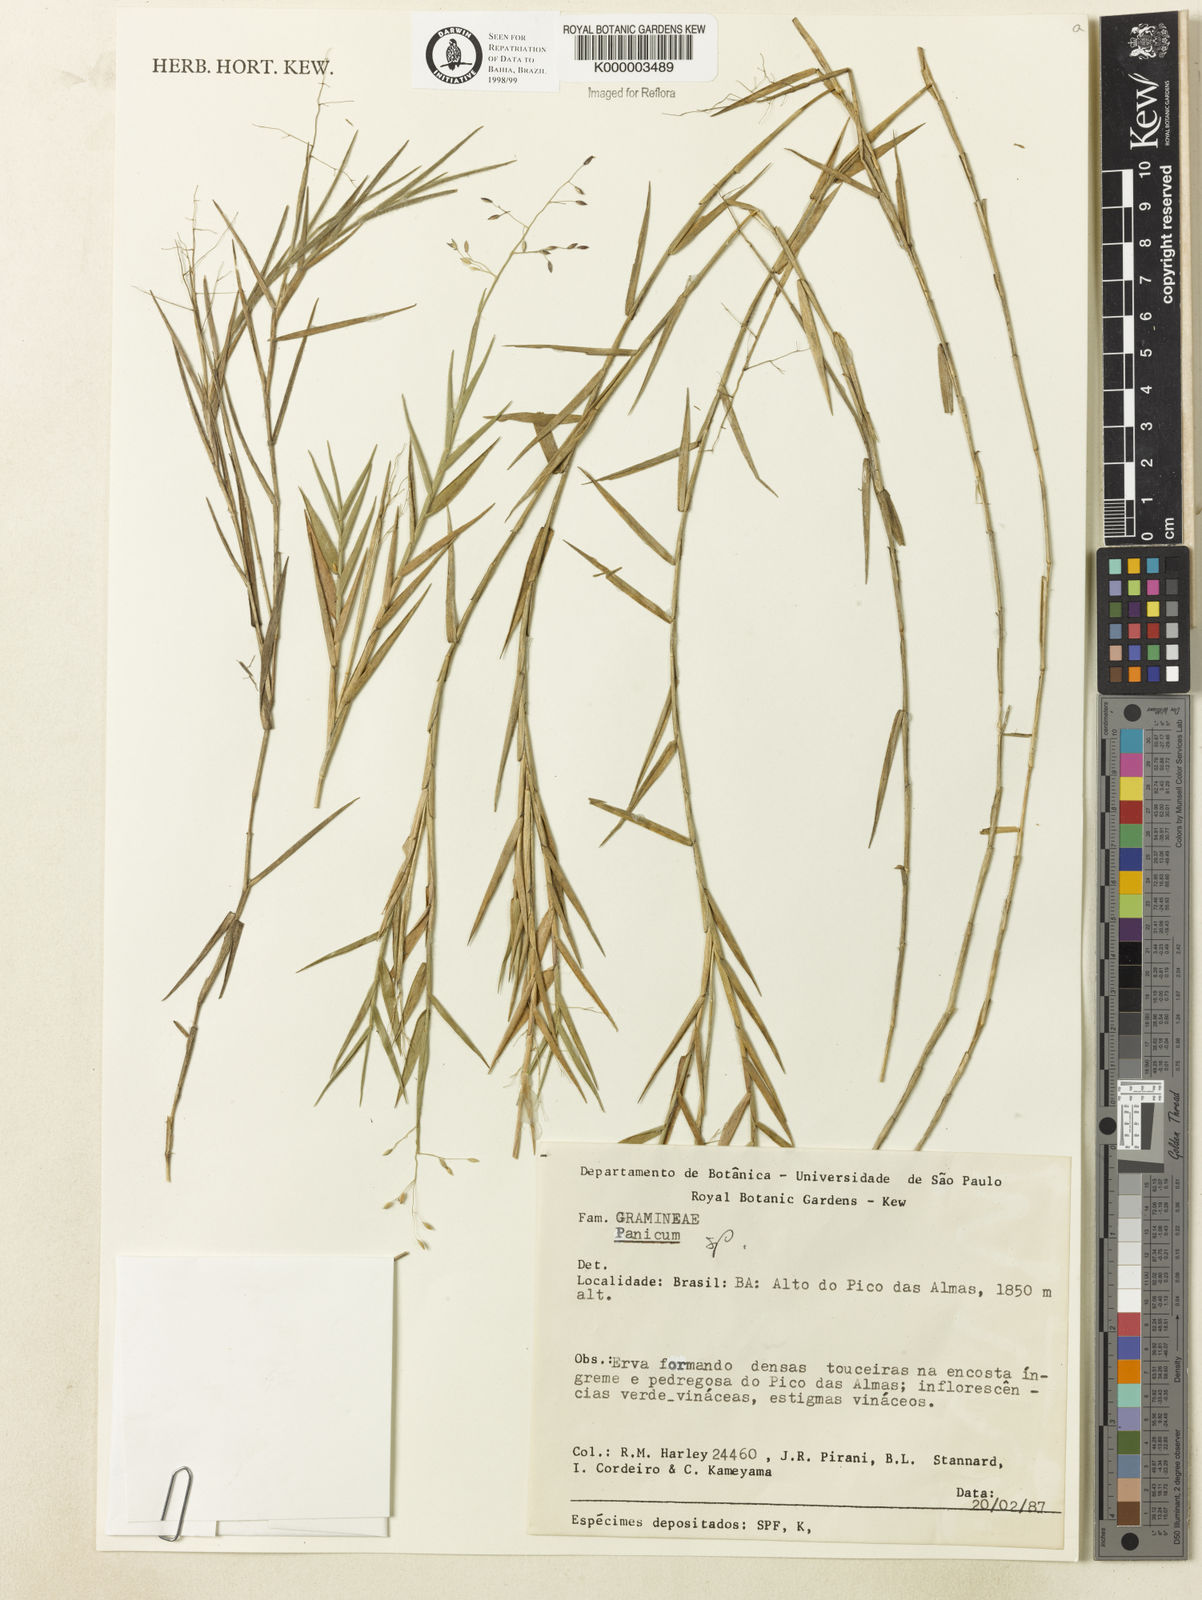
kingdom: Plantae
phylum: Tracheophyta
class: Liliopsida
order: Poales
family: Poaceae
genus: Dichanthelium
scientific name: Dichanthelium adenorhachis
